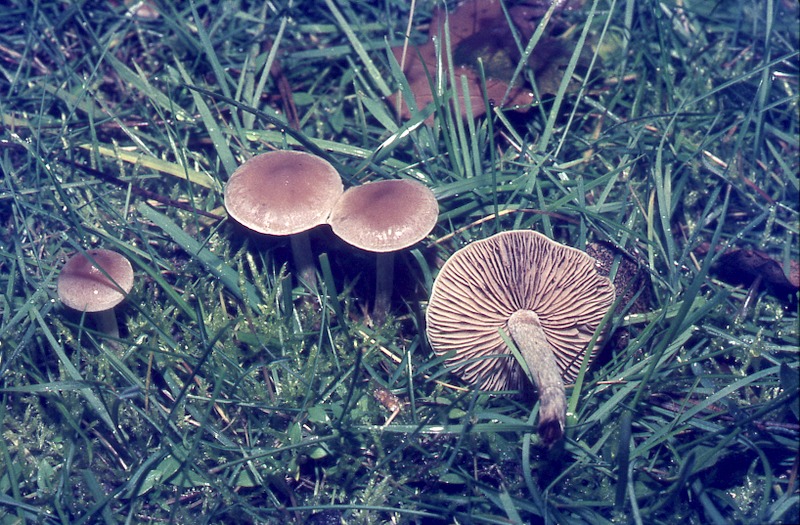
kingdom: Fungi
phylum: Basidiomycota
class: Agaricomycetes
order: Agaricales
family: Hymenogastraceae
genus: Hebeloma
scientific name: Hebeloma mesophaeum
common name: Veiled poisonpie
